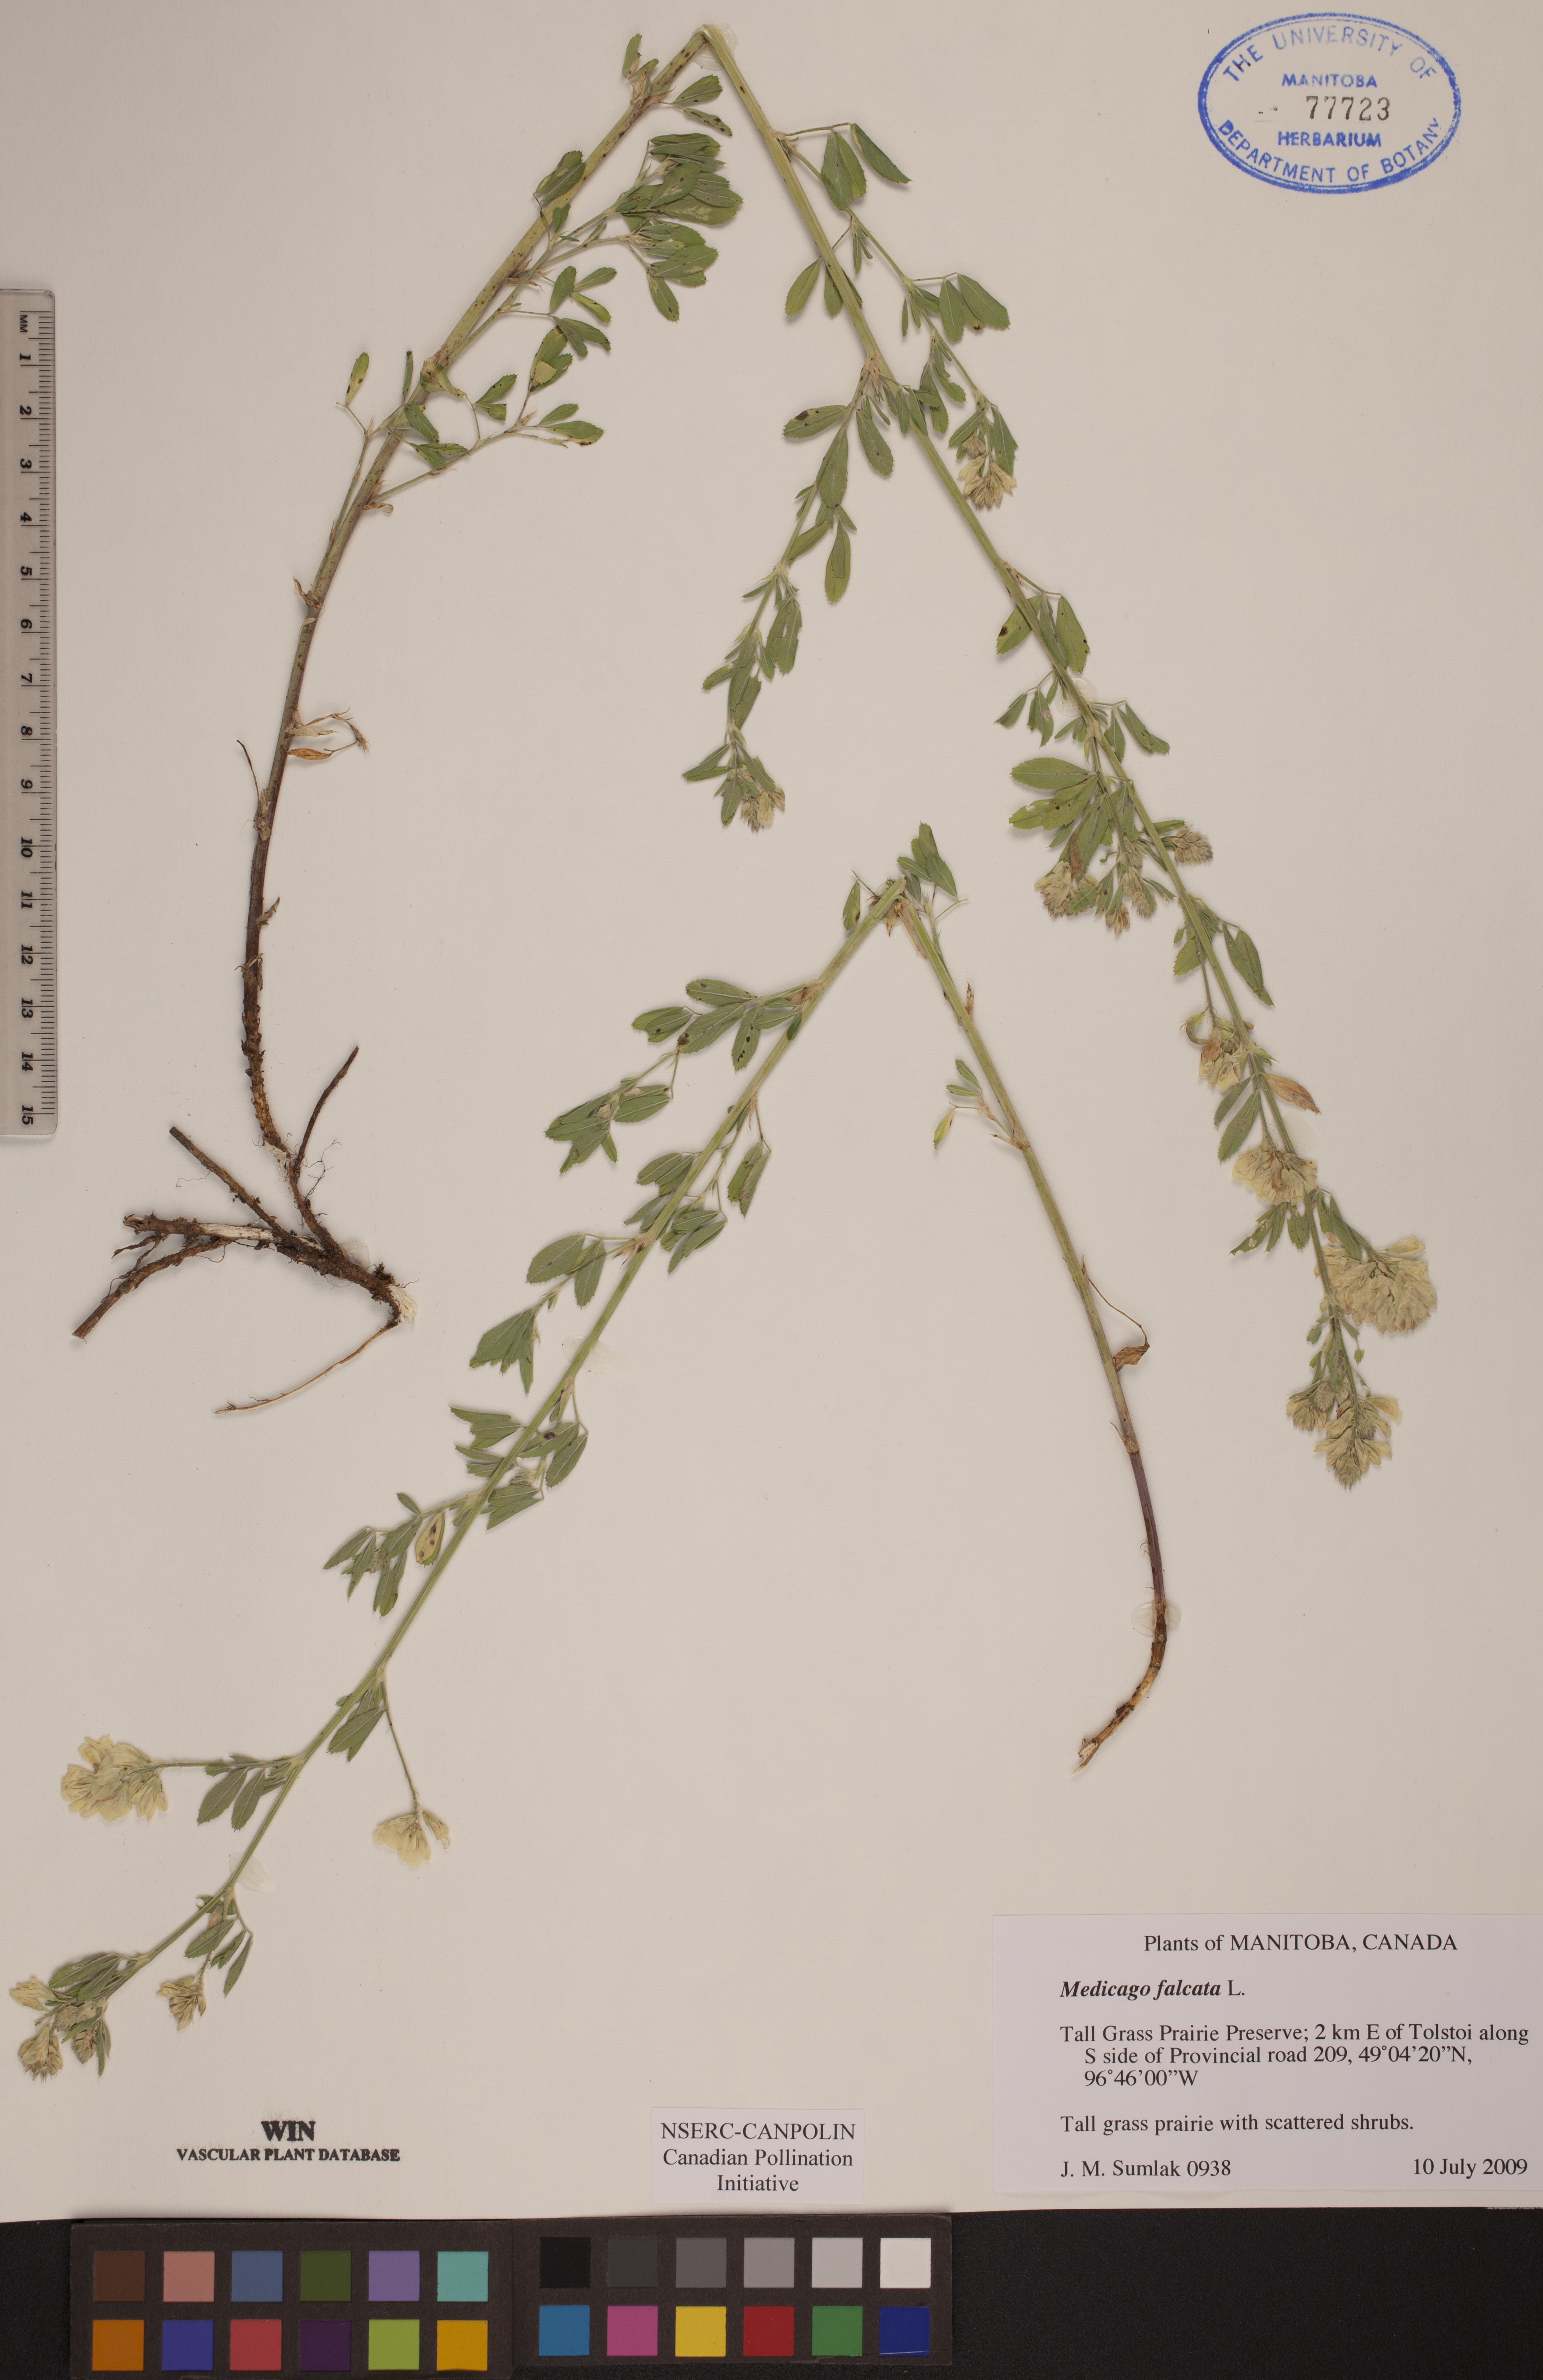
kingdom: Plantae
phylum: Tracheophyta
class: Magnoliopsida
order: Fabales
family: Fabaceae
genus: Medicago
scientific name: Medicago sativa
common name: Alfalfa
